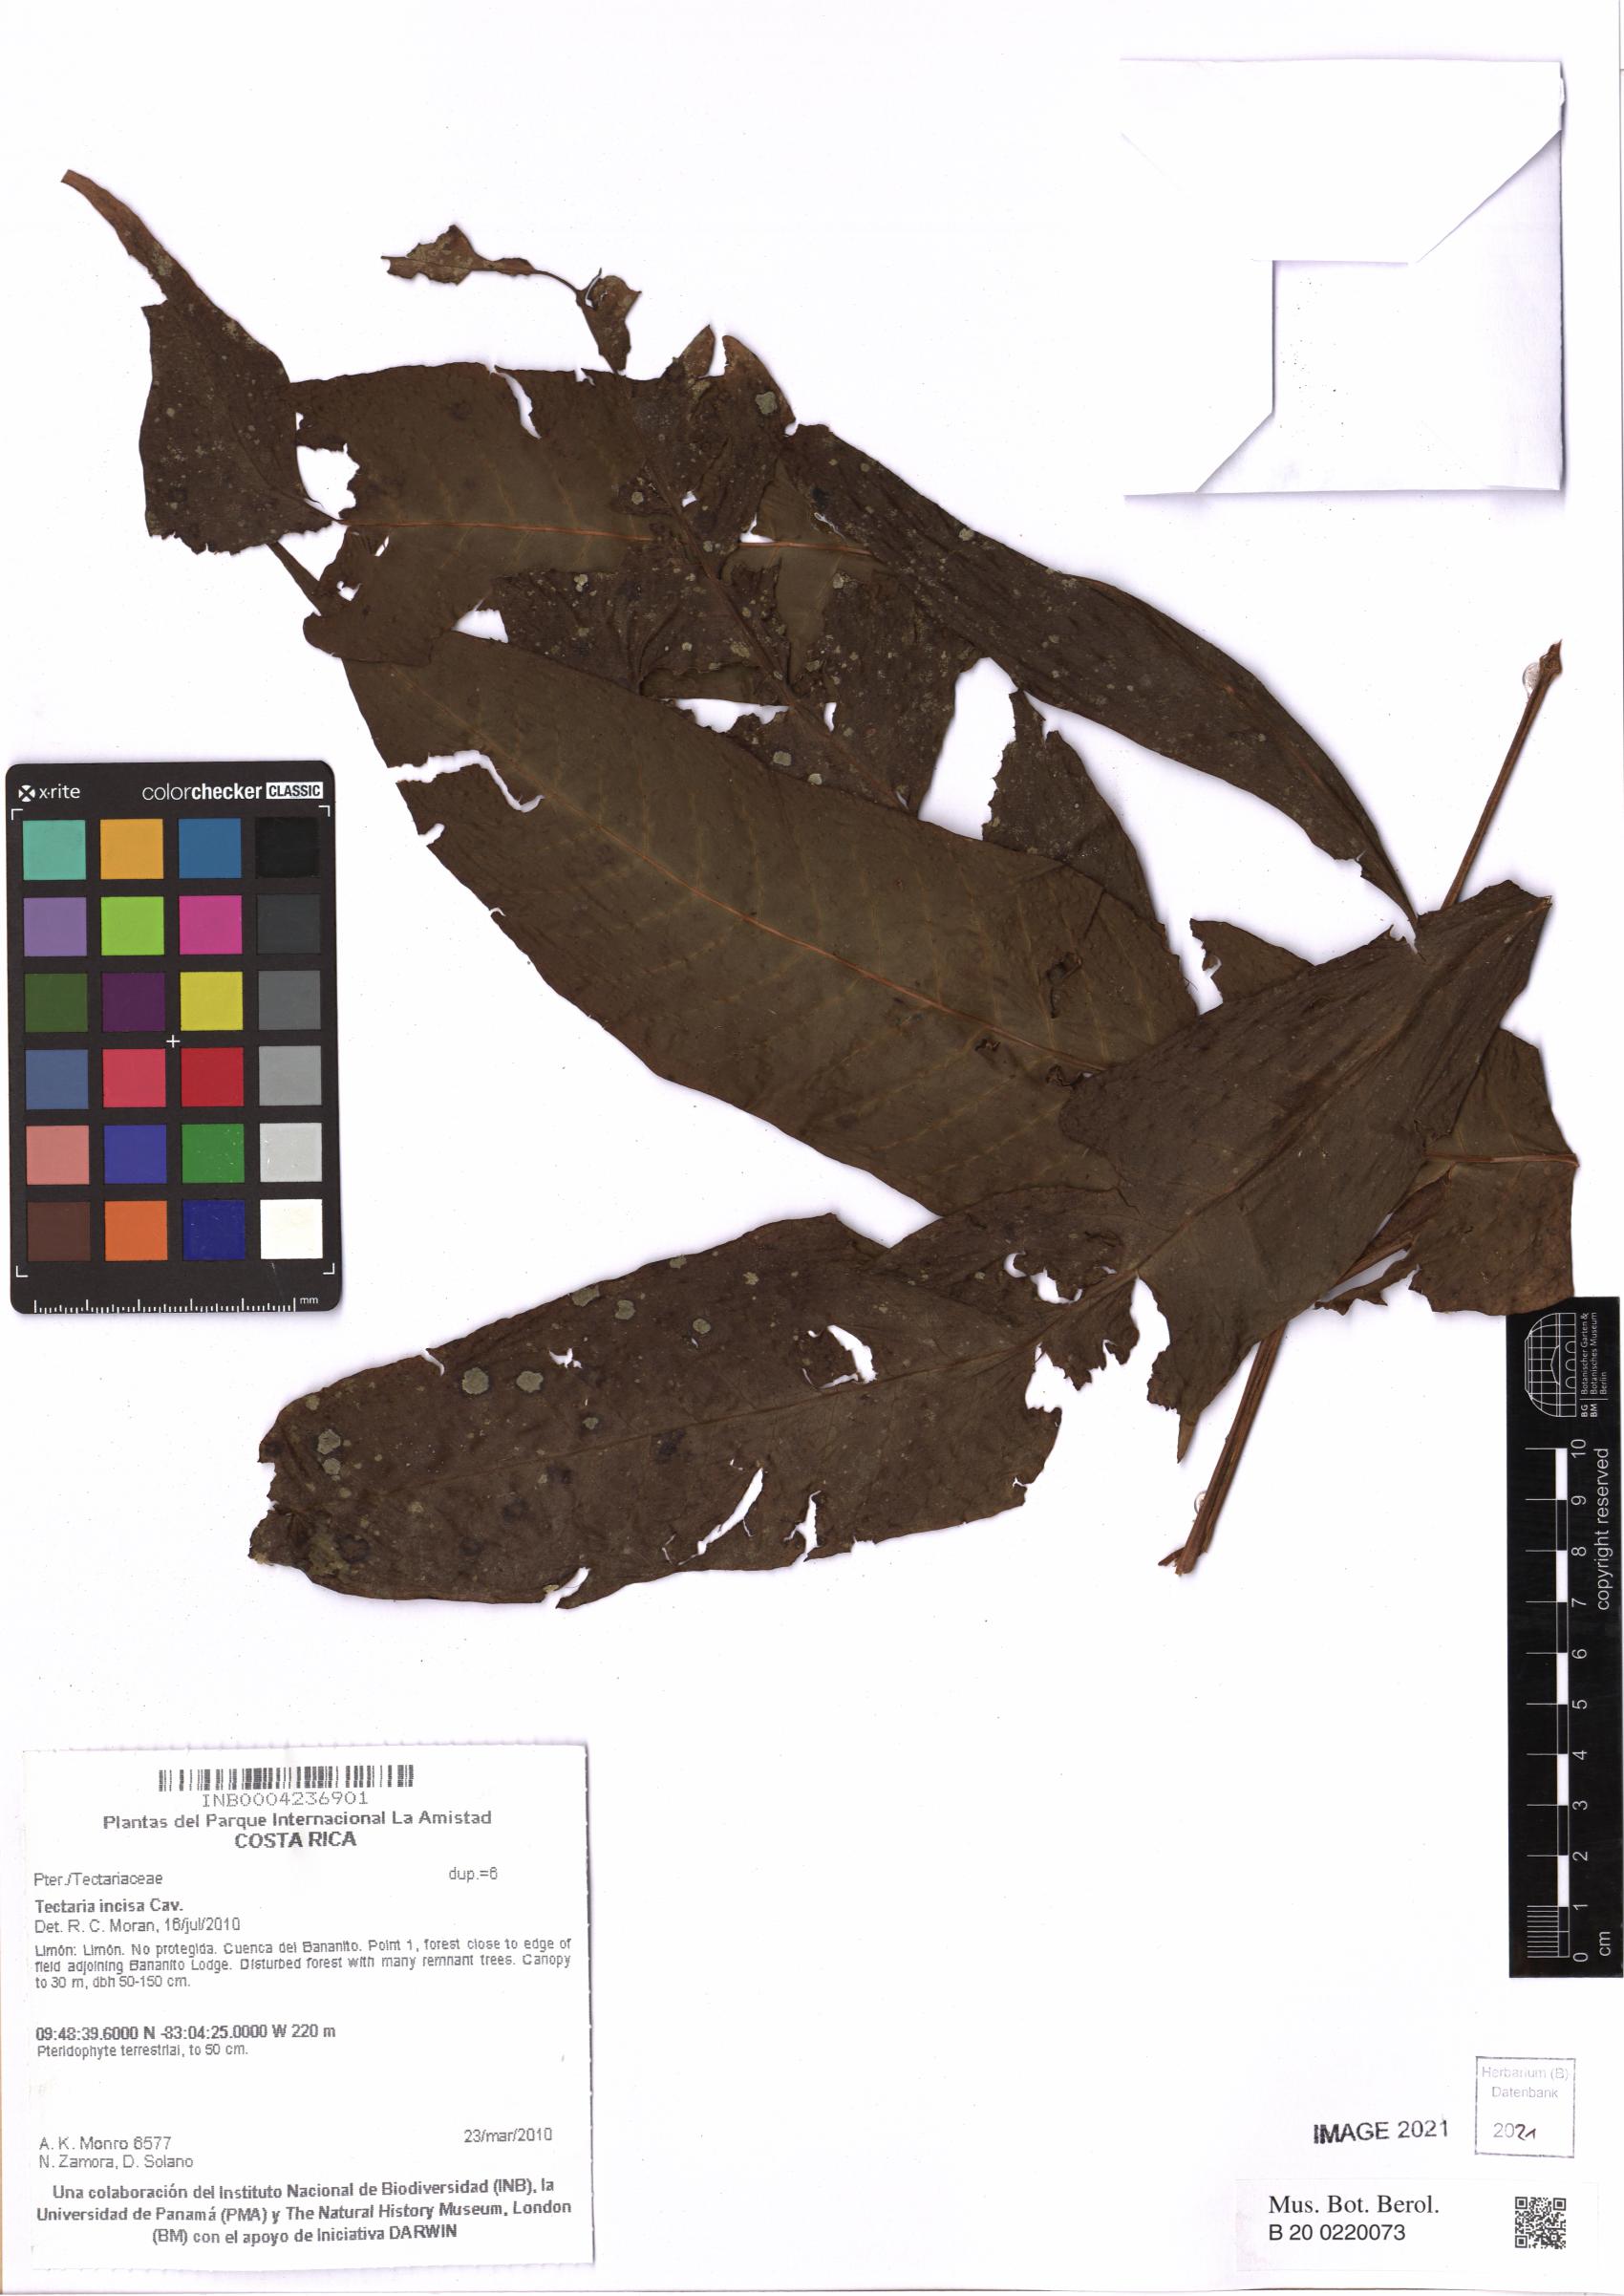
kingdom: Plantae
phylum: Tracheophyta
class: Polypodiopsida
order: Polypodiales
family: Tectariaceae
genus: Tectaria
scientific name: Tectaria incisa
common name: Incised halberd fern
